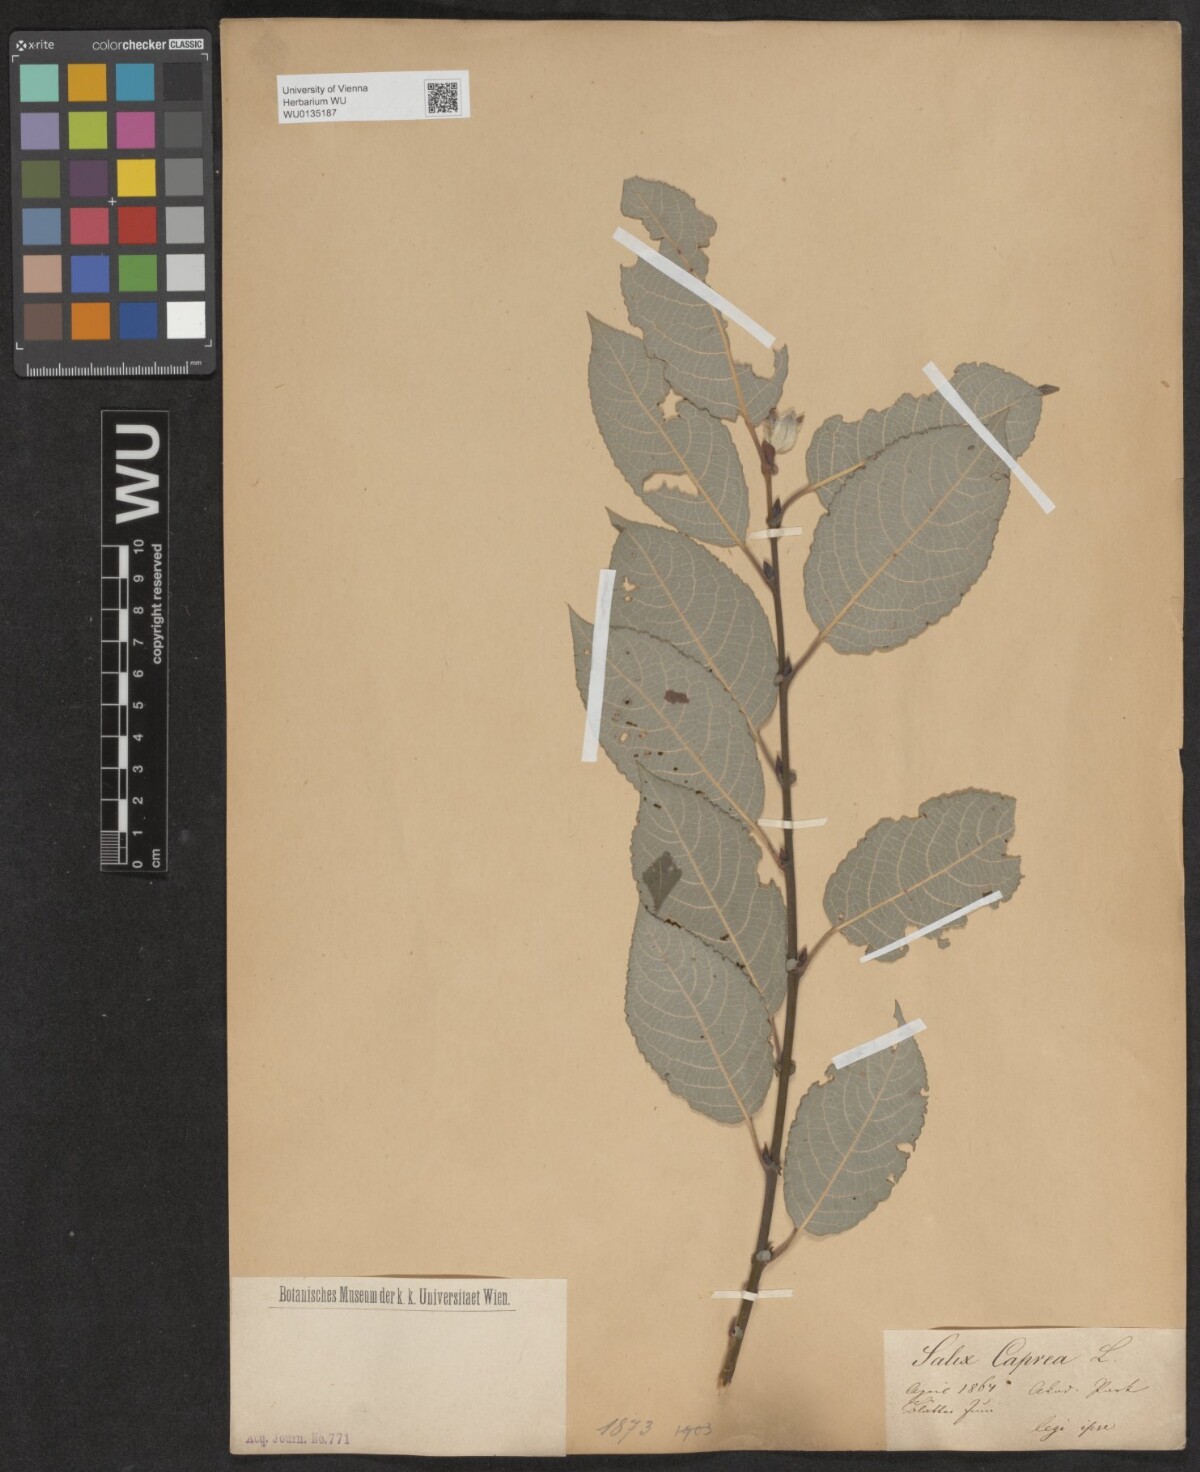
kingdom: Plantae
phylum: Tracheophyta
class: Magnoliopsida
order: Malpighiales
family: Salicaceae
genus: Salix
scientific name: Salix caprea
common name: Goat willow
